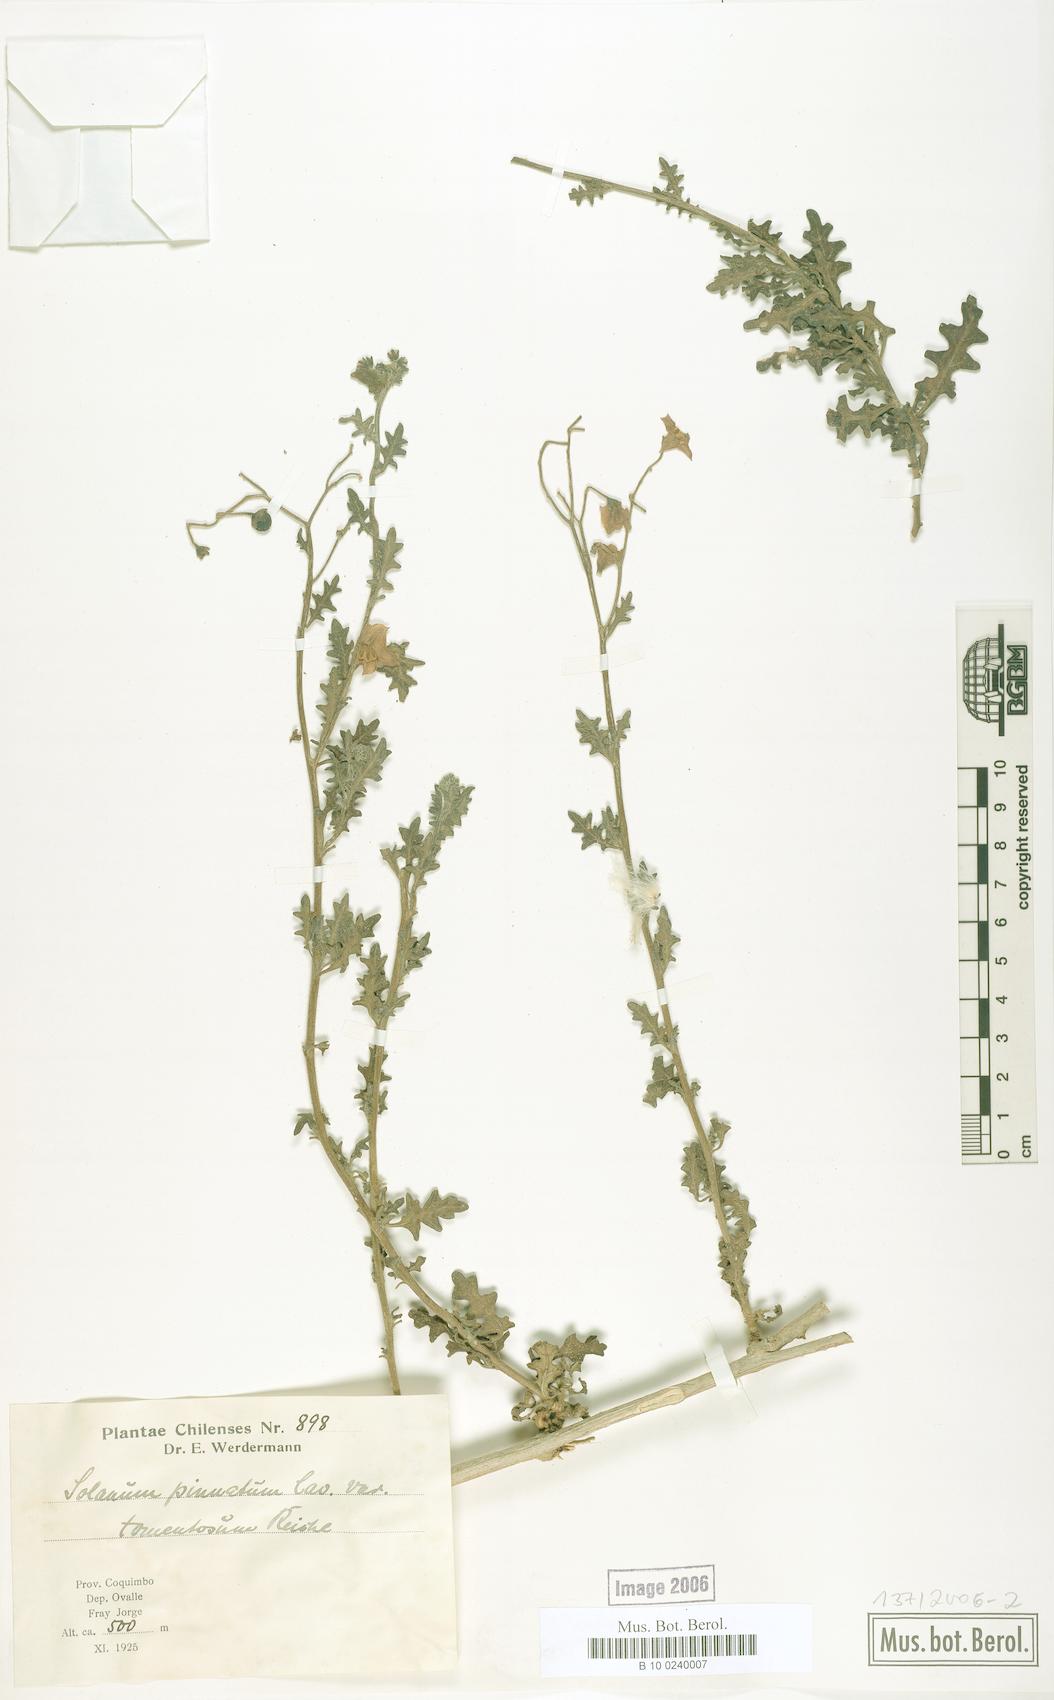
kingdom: Plantae
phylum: Tracheophyta
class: Magnoliopsida
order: Solanales
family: Solanaceae
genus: Solanum
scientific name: Solanum pinnatum
